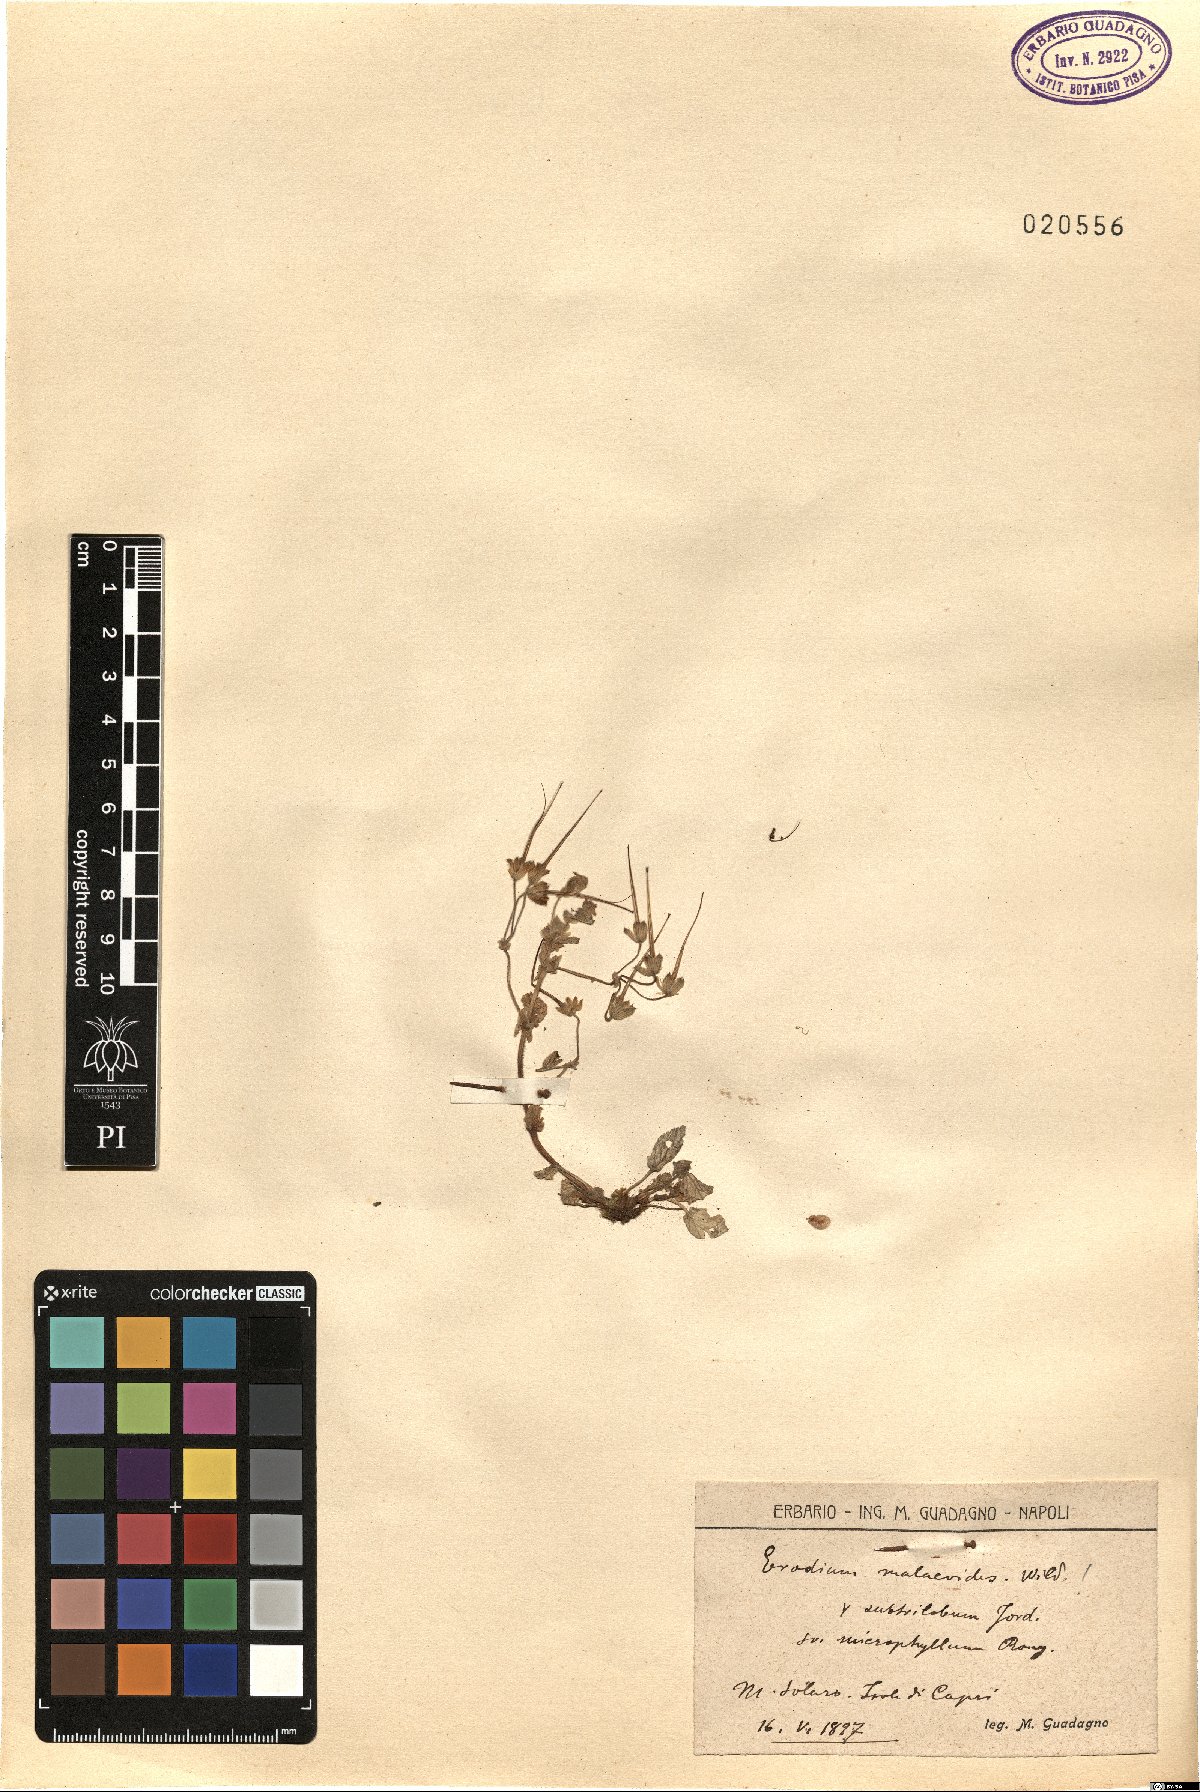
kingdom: Plantae
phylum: Tracheophyta
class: Magnoliopsida
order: Geraniales
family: Geraniaceae
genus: Erodium
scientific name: Erodium malacoides
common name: Soft stork's-bill
